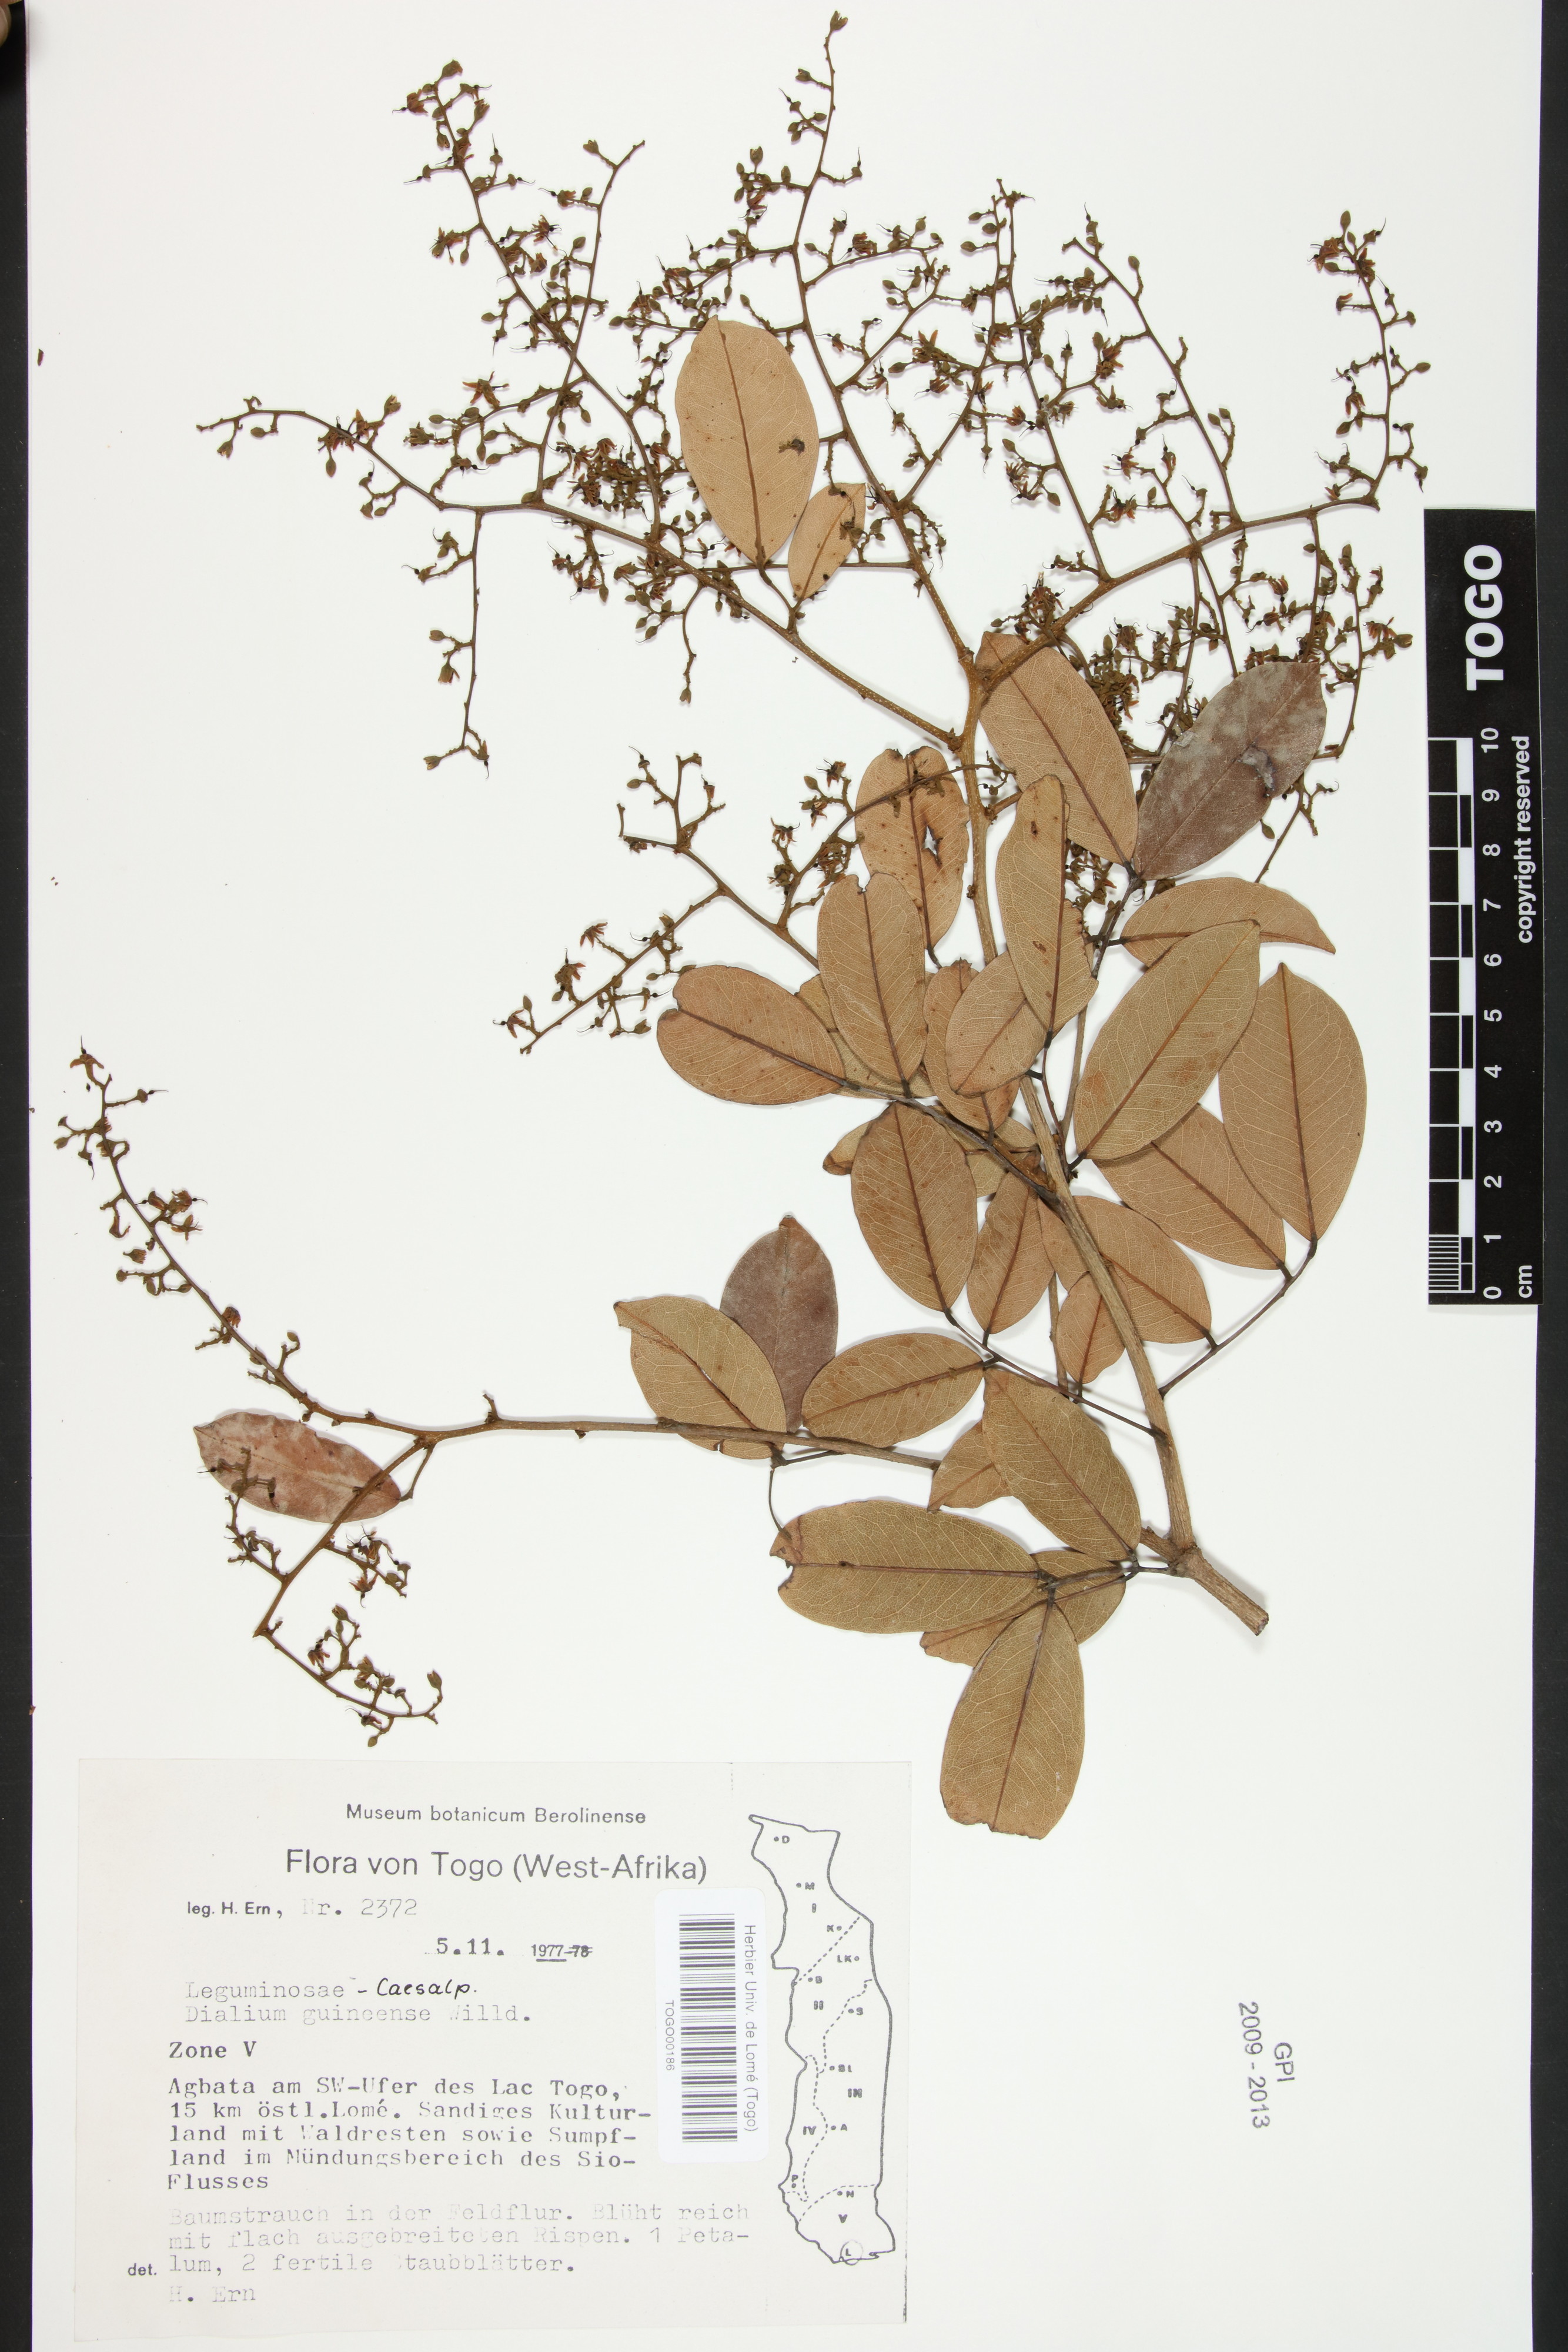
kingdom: Plantae
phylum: Tracheophyta
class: Magnoliopsida
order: Fabales
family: Fabaceae
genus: Dialium
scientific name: Dialium guineense
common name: Sierra leone-tamarind
